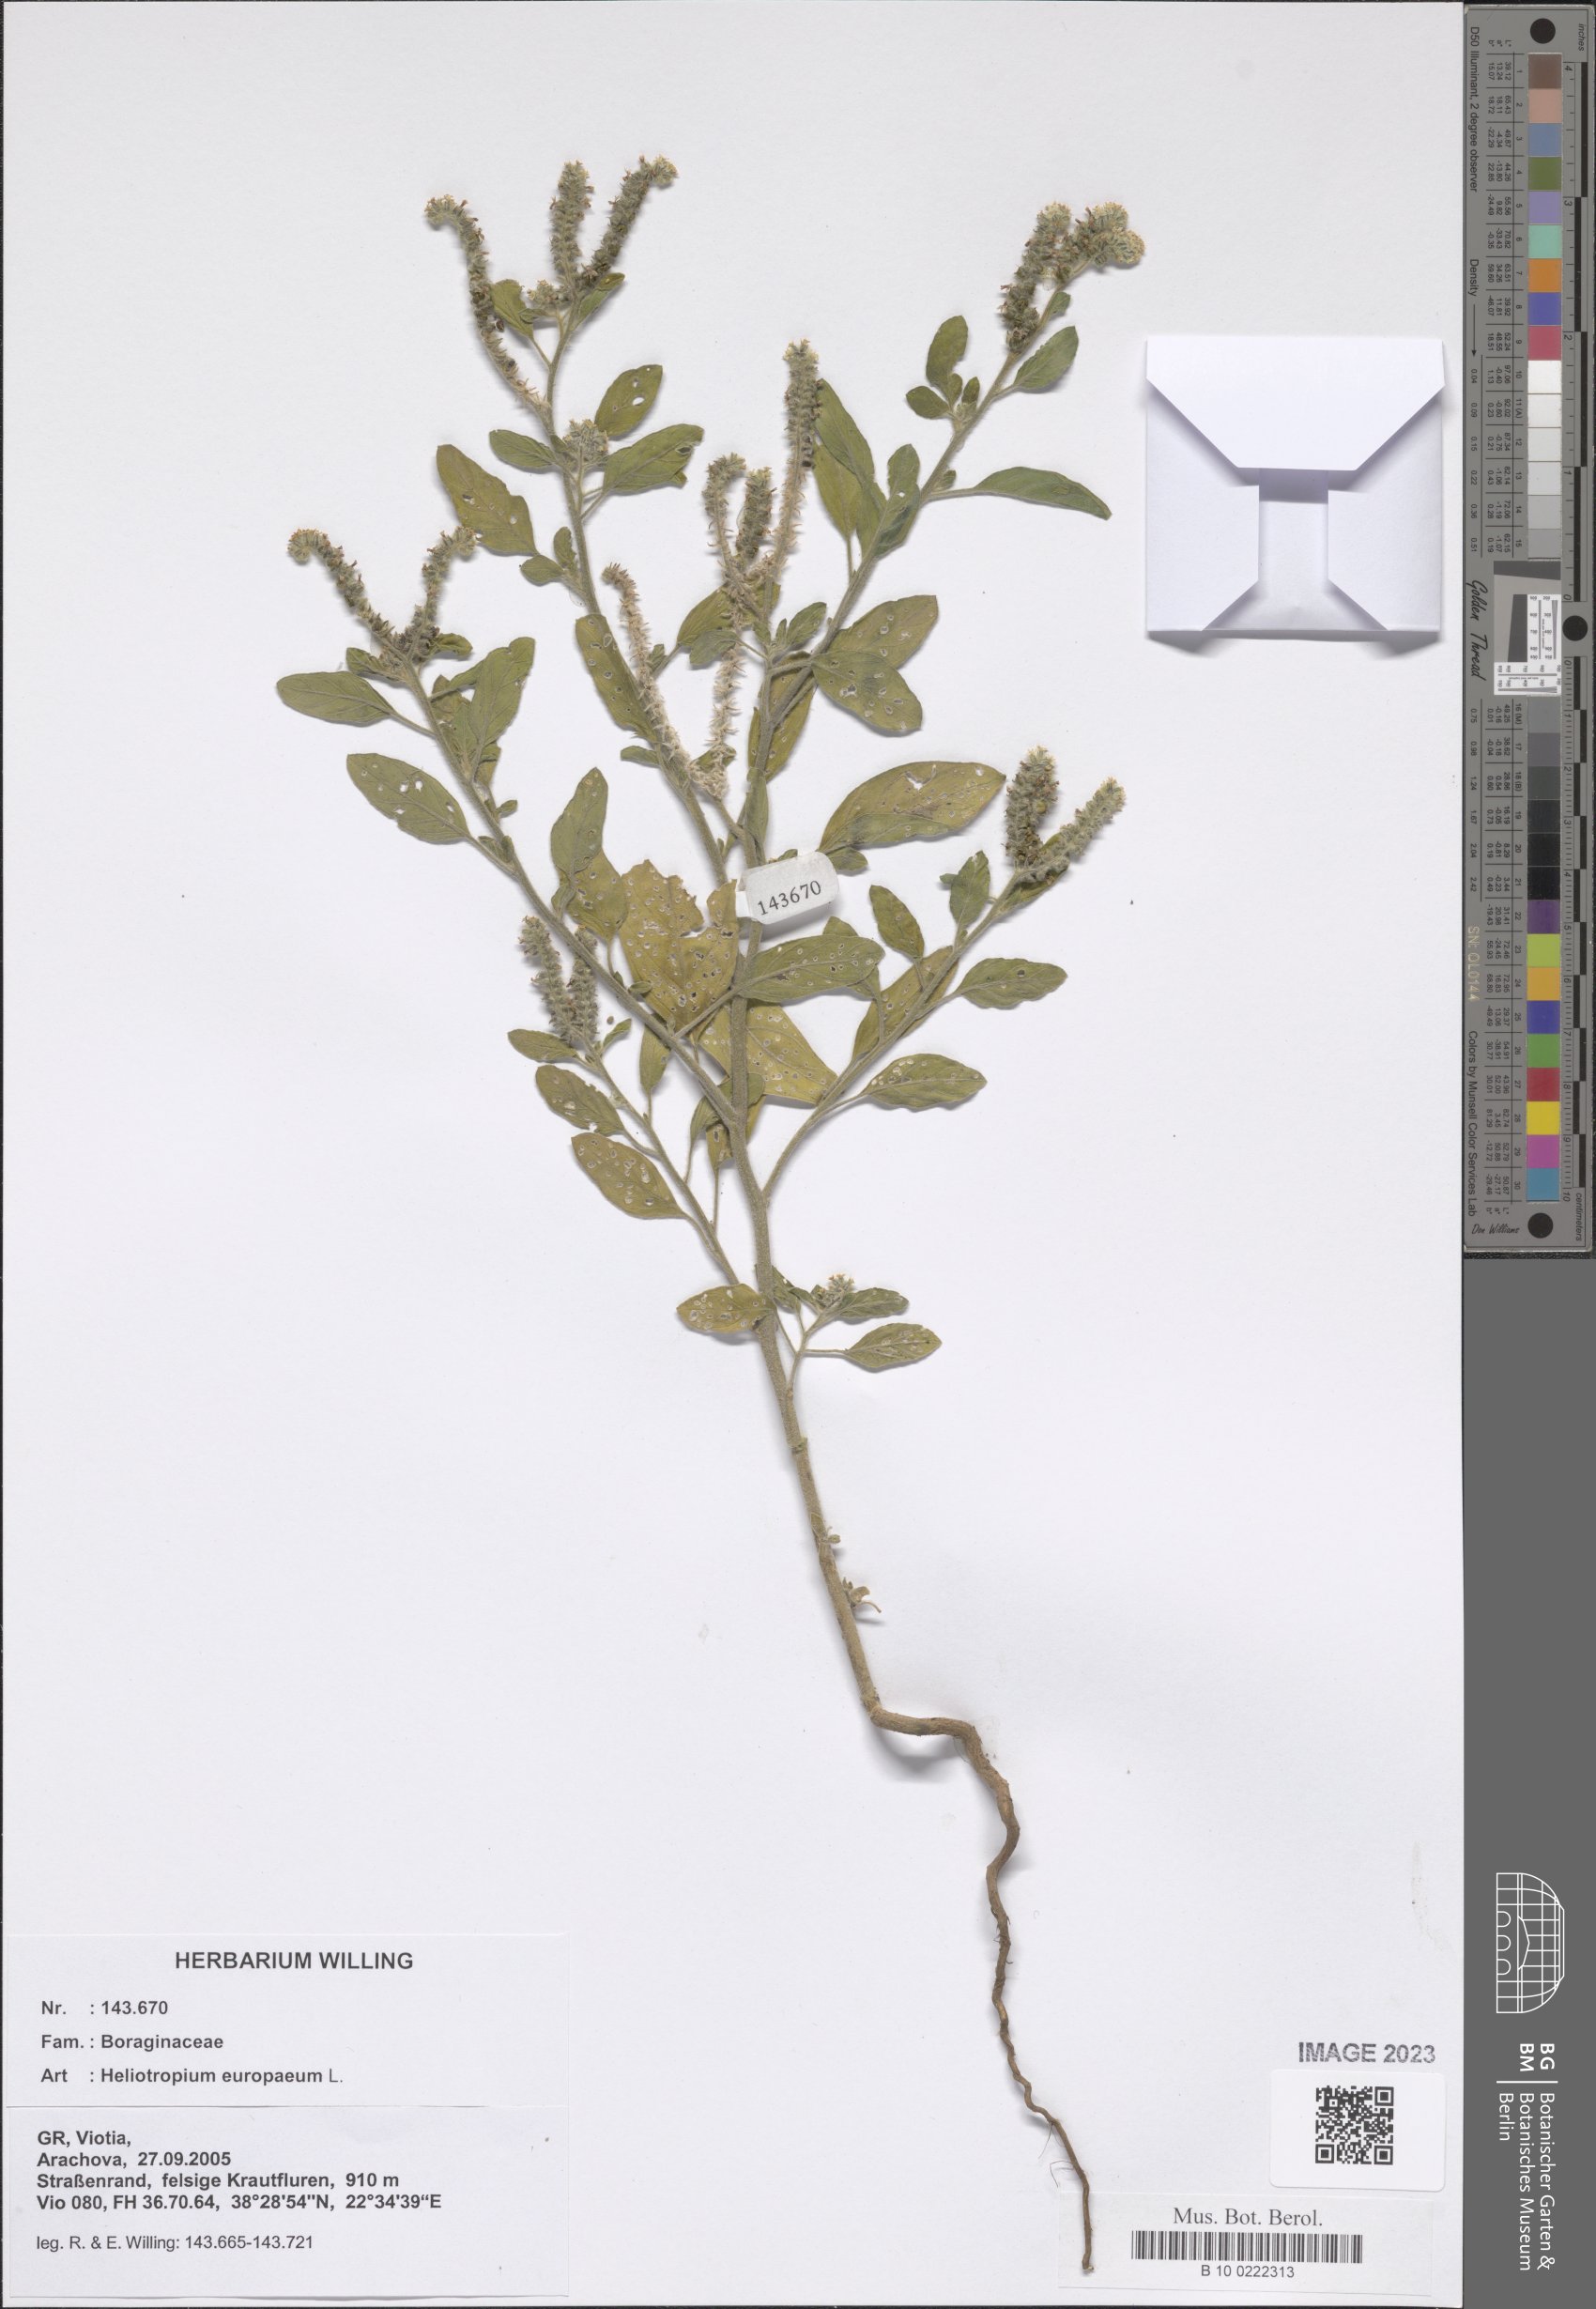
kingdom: Plantae
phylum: Tracheophyta
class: Magnoliopsida
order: Boraginales
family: Heliotropiaceae
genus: Heliotropium
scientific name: Heliotropium europaeum
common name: European heliotrope
